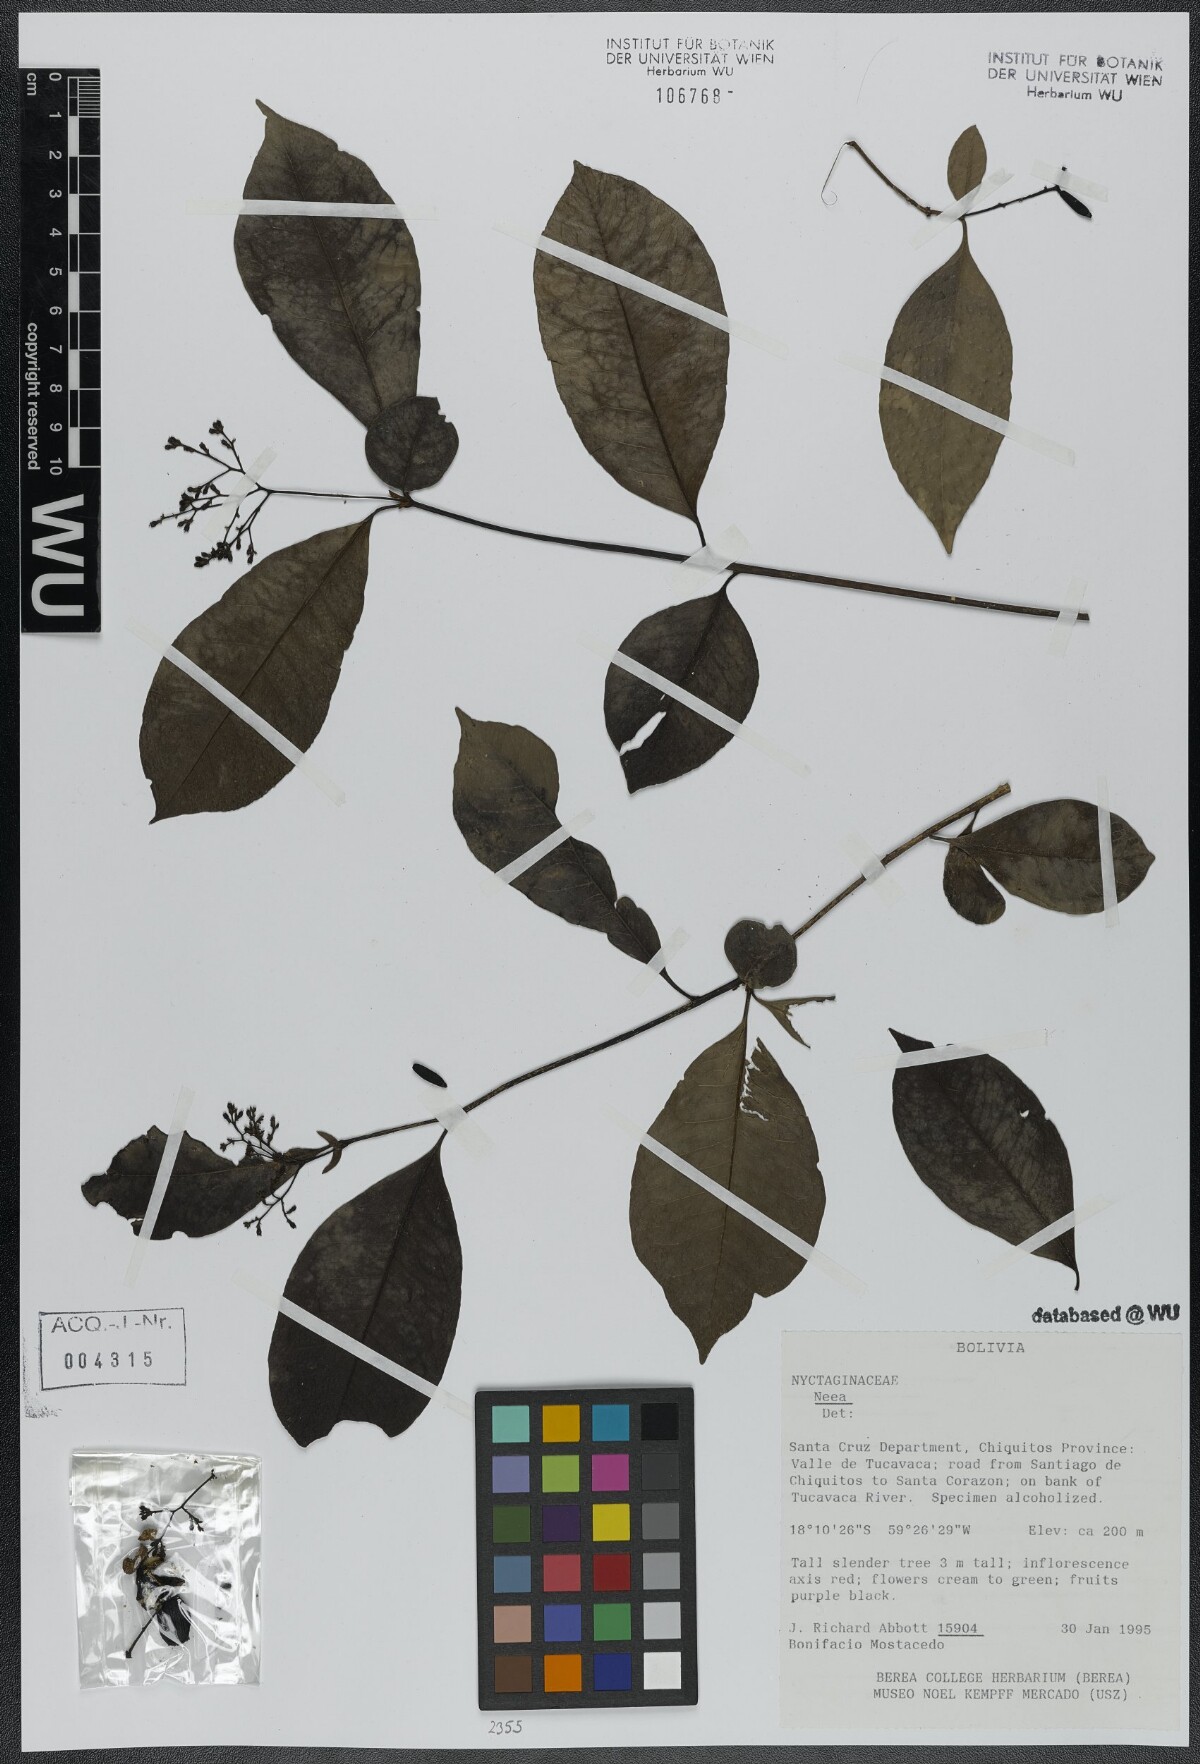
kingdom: Plantae
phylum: Tracheophyta
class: Magnoliopsida
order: Caryophyllales
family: Nyctaginaceae
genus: Neea
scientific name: Neea
